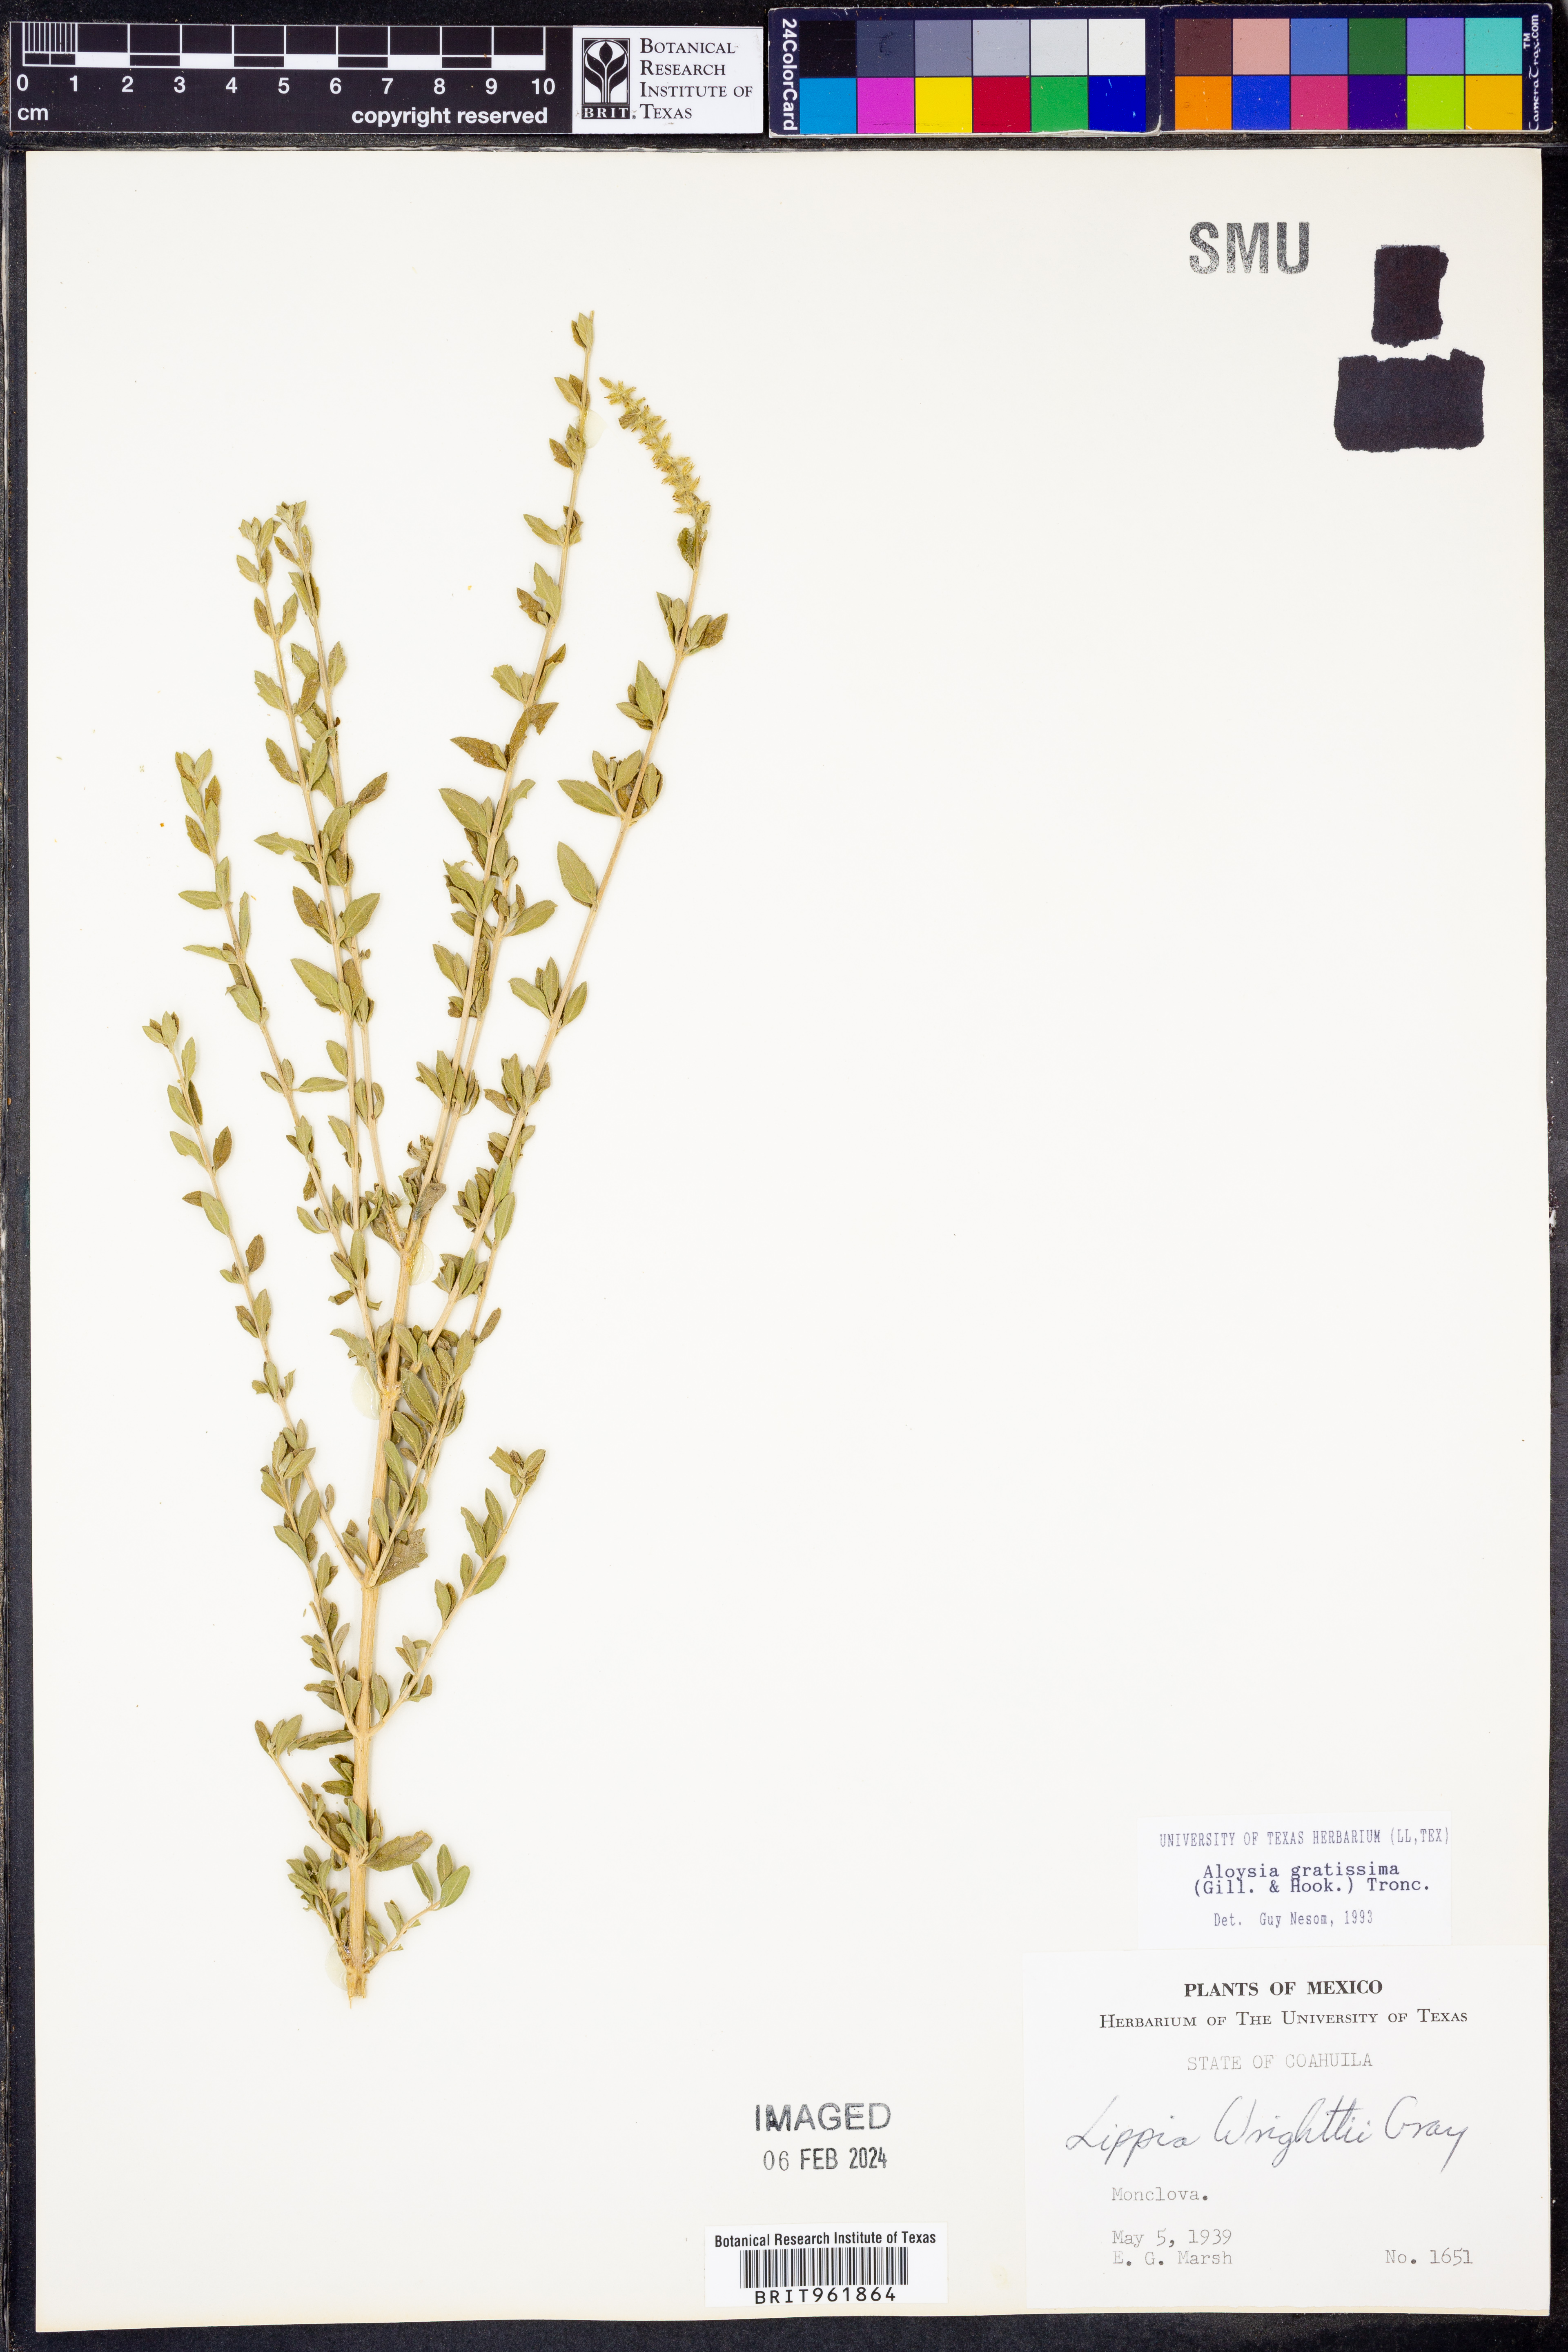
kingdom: Plantae
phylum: Tracheophyta
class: Magnoliopsida
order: Lamiales
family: Verbenaceae
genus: Aloysia
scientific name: Aloysia gratissima
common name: Common bee-brush
